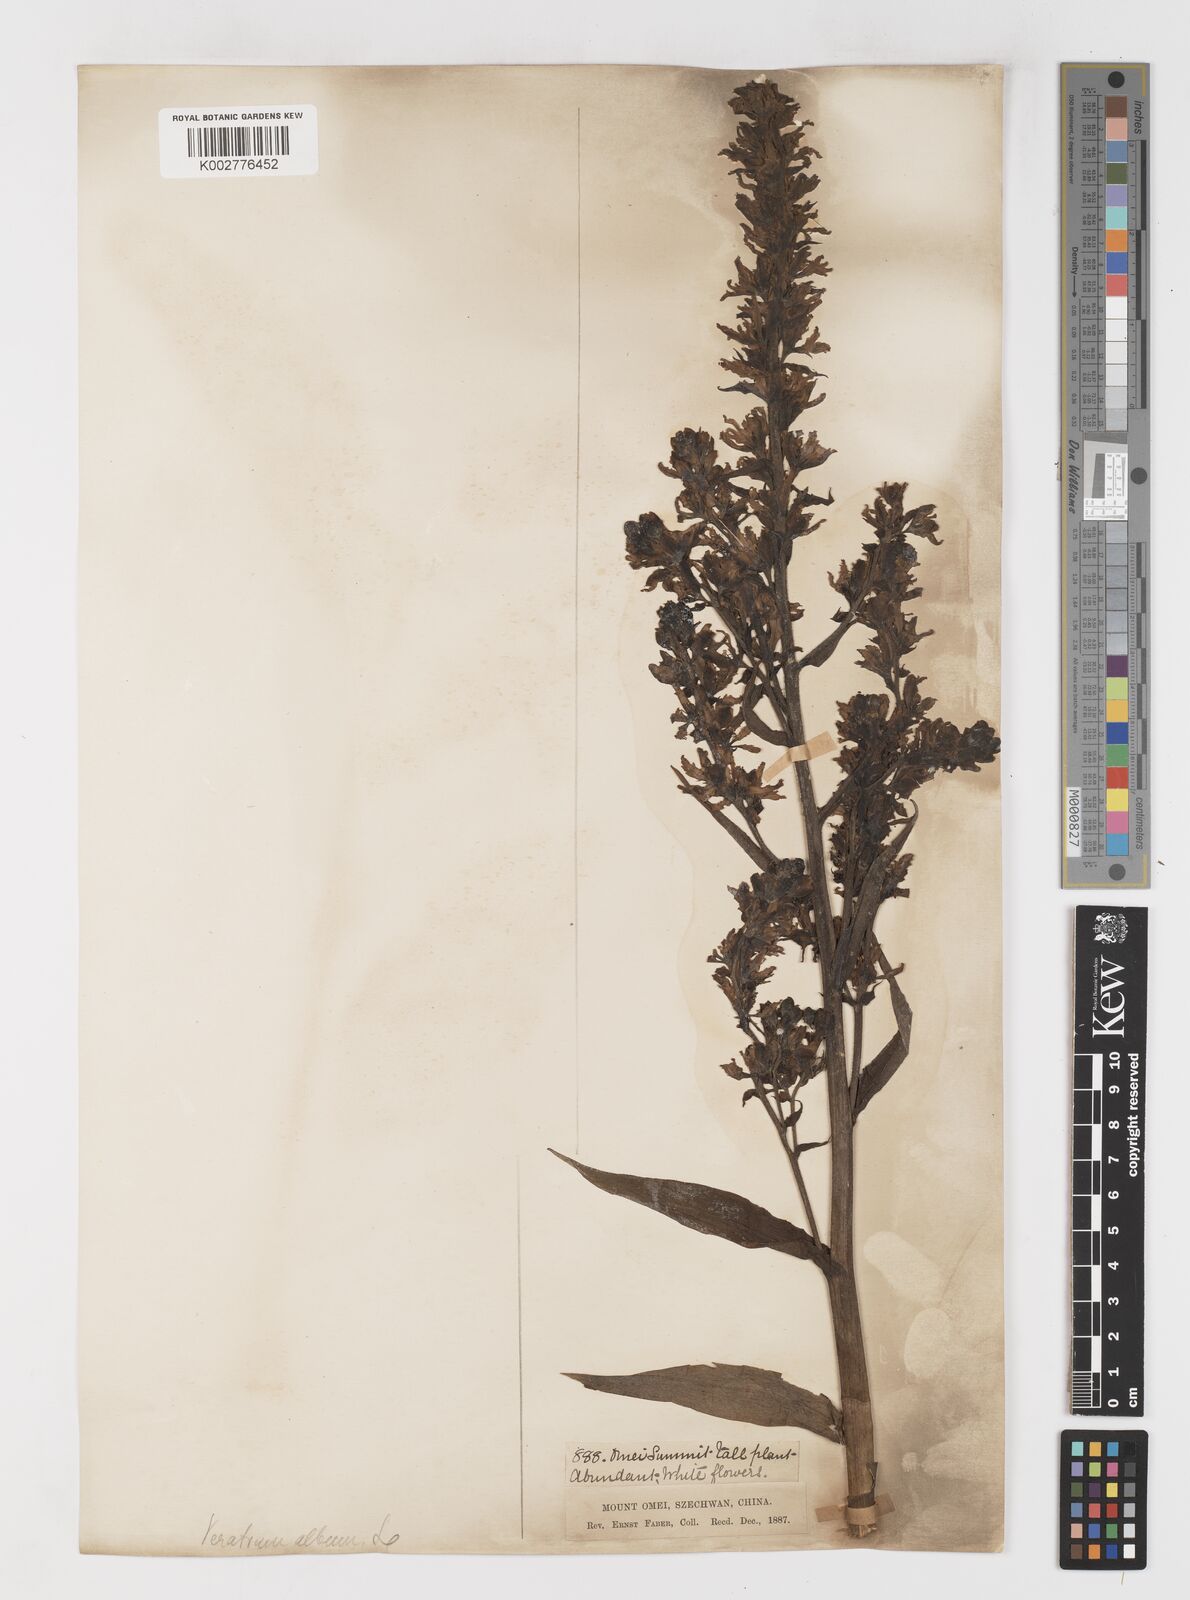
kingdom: Plantae
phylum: Tracheophyta
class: Liliopsida
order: Liliales
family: Melanthiaceae
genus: Veratrum
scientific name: Veratrum album
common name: White veratrum
